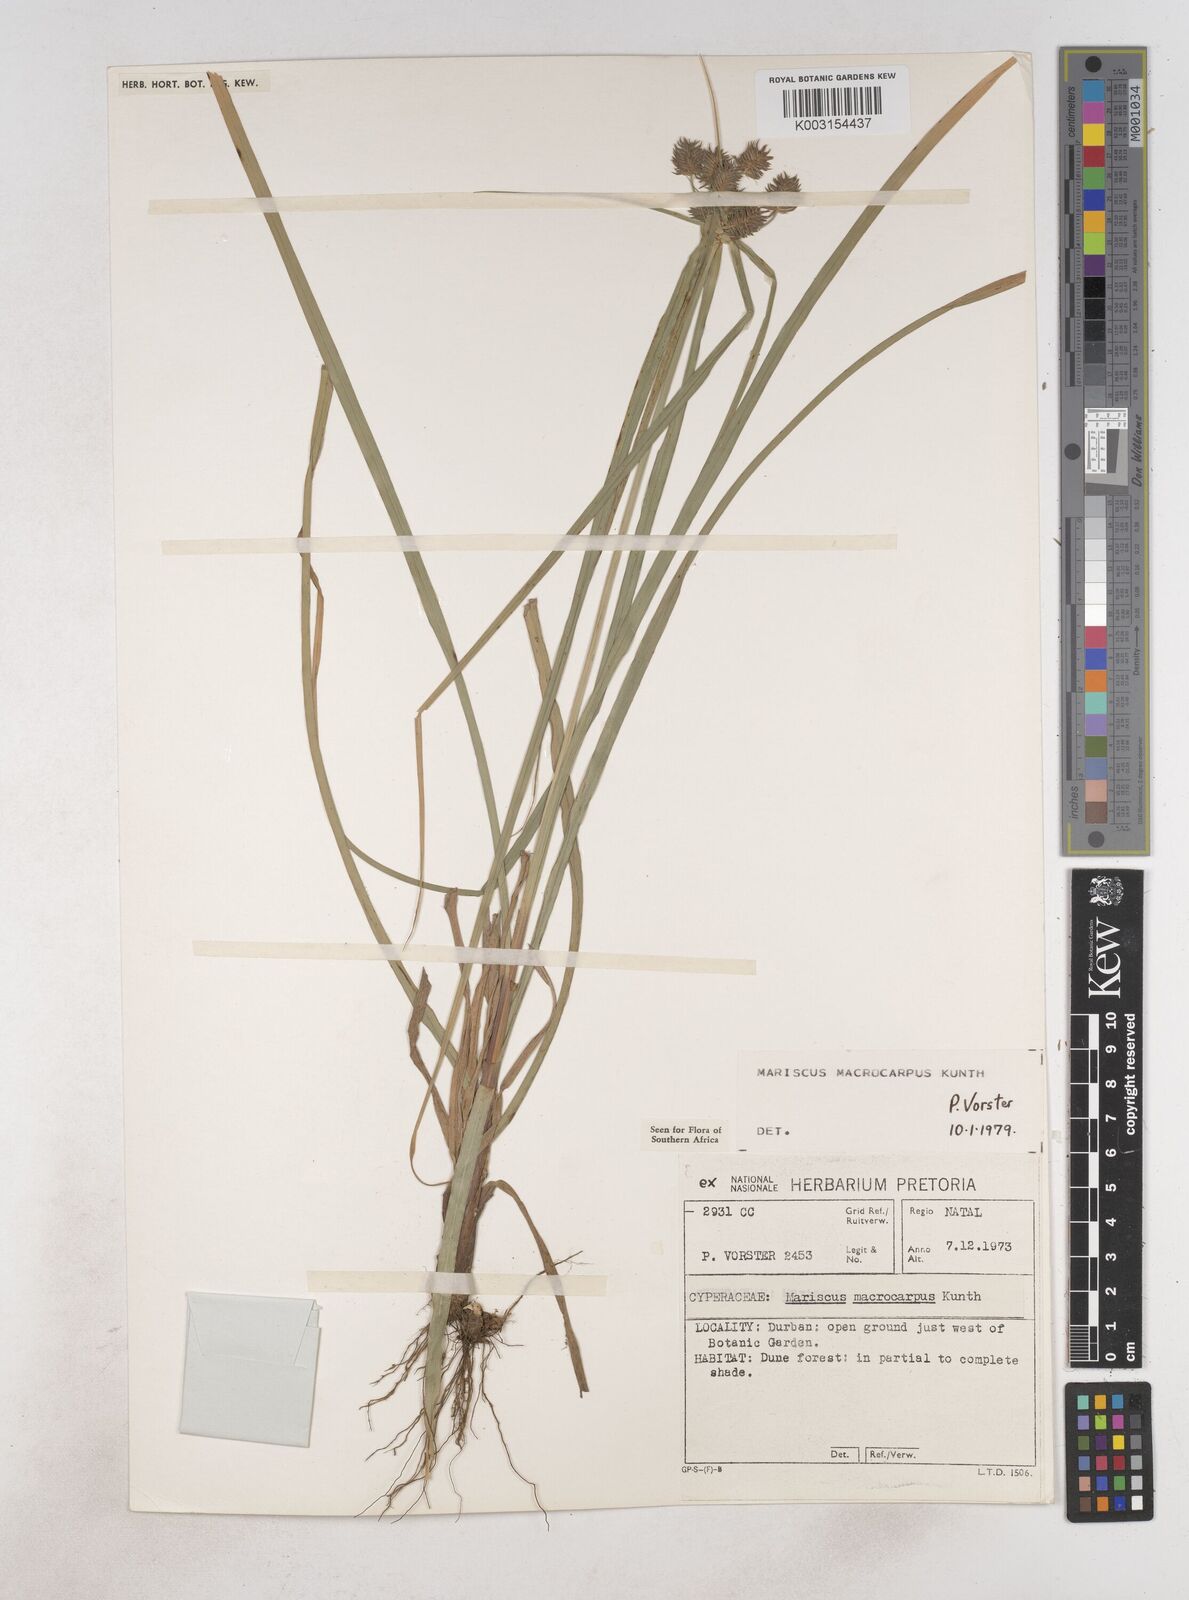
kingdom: Plantae
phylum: Tracheophyta
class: Liliopsida
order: Poales
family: Cyperaceae
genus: Cyperus
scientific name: Cyperus macrocarpus
